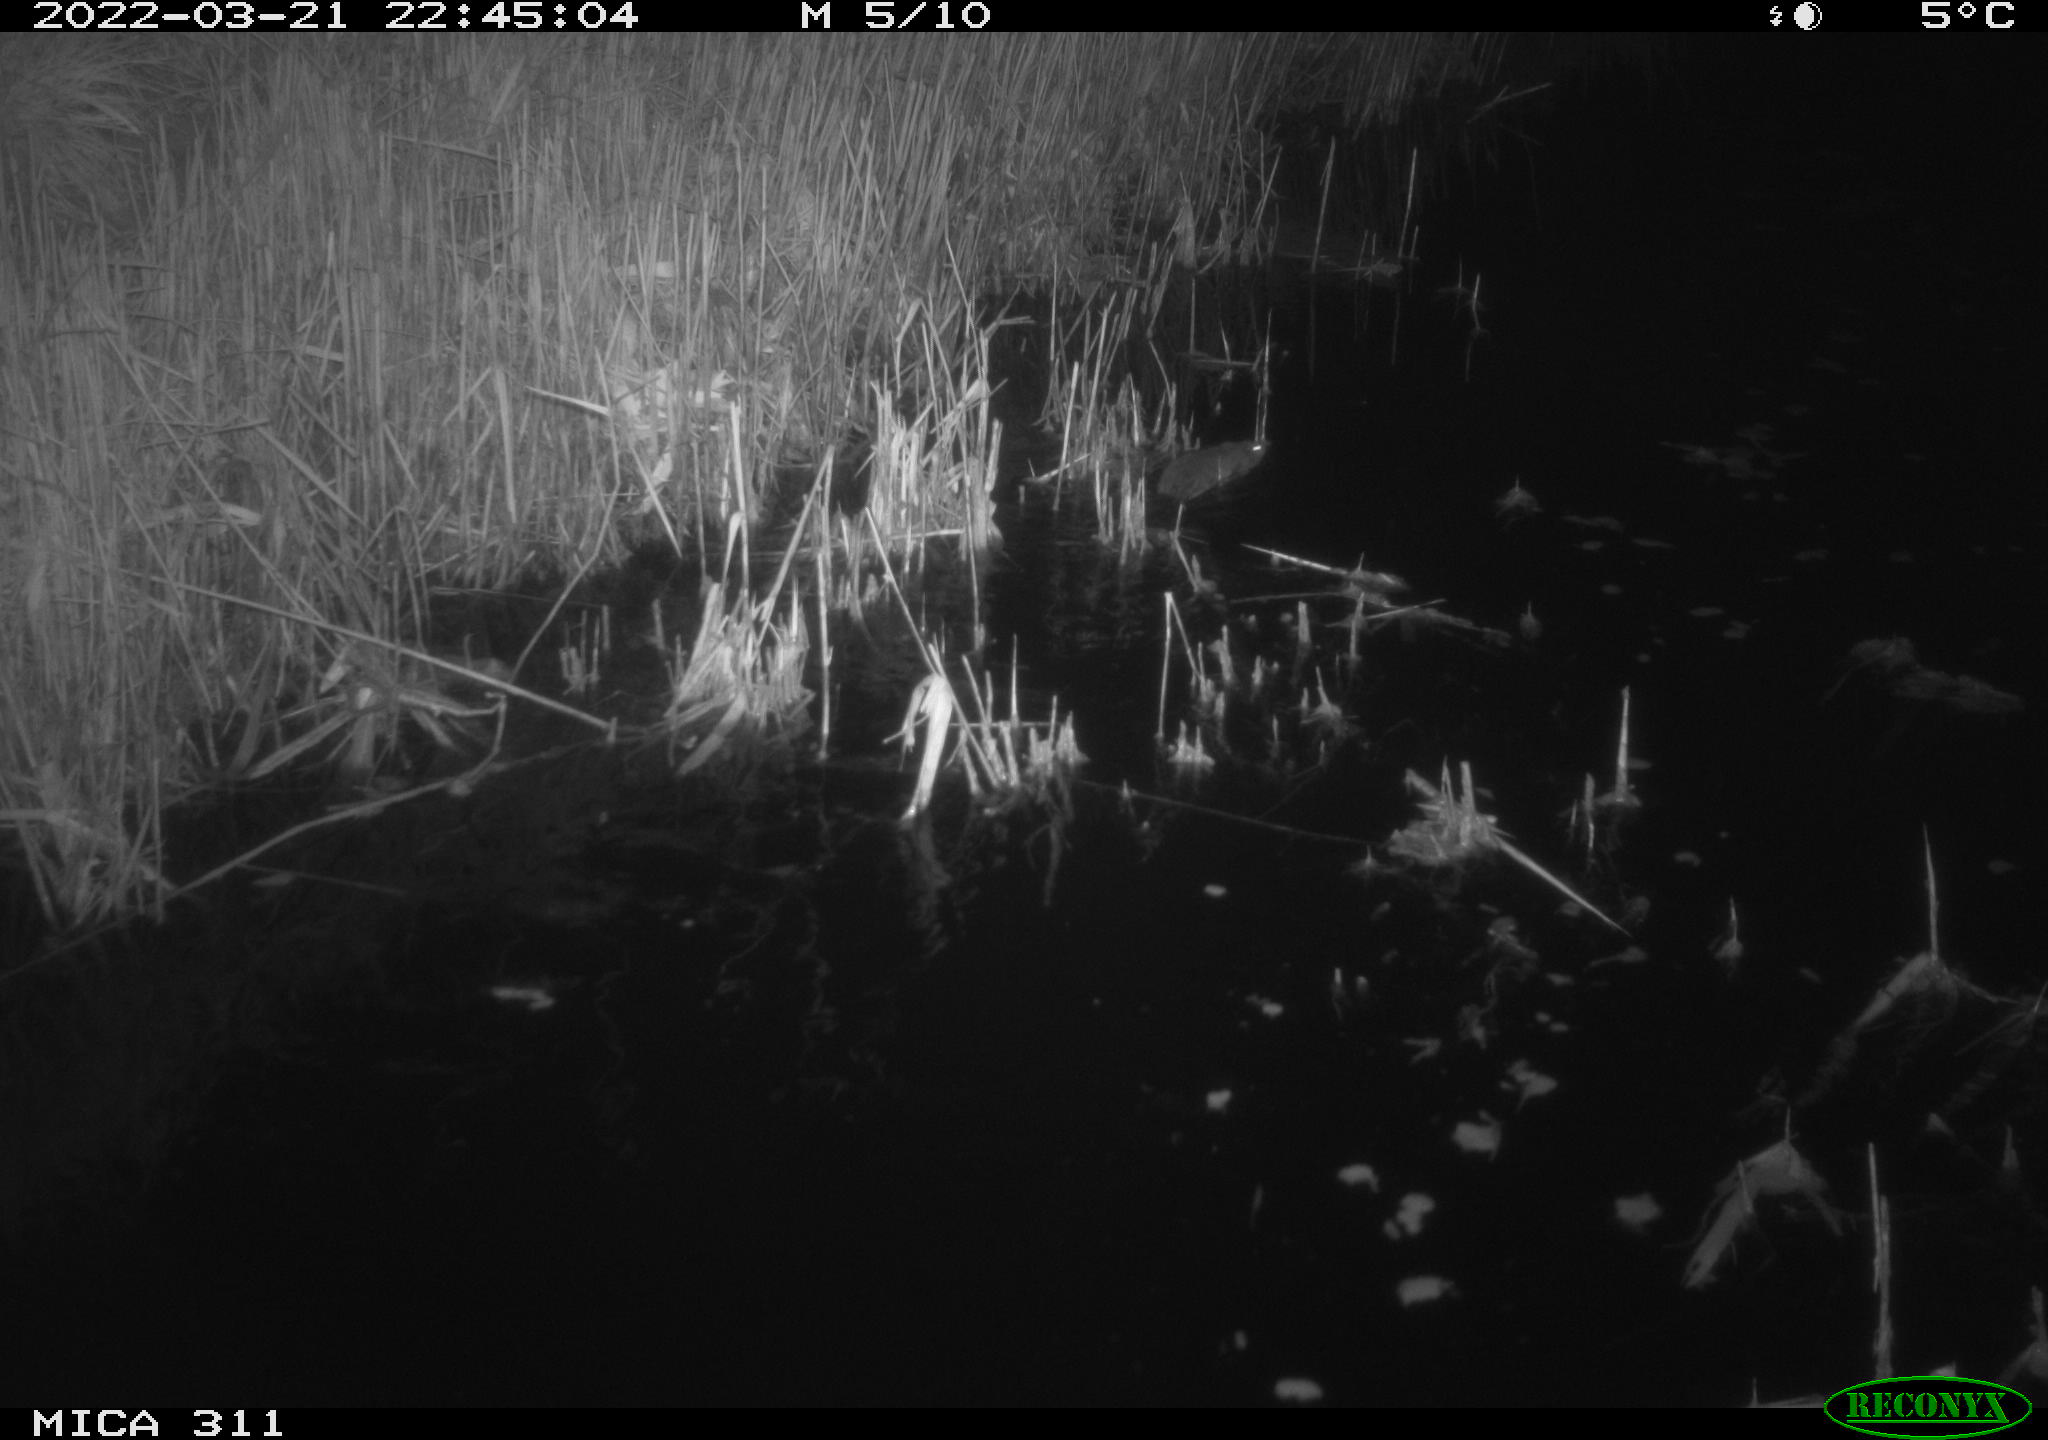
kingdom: Animalia
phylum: Chordata
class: Mammalia
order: Rodentia
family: Cricetidae
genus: Ondatra
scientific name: Ondatra zibethicus
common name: Muskrat
